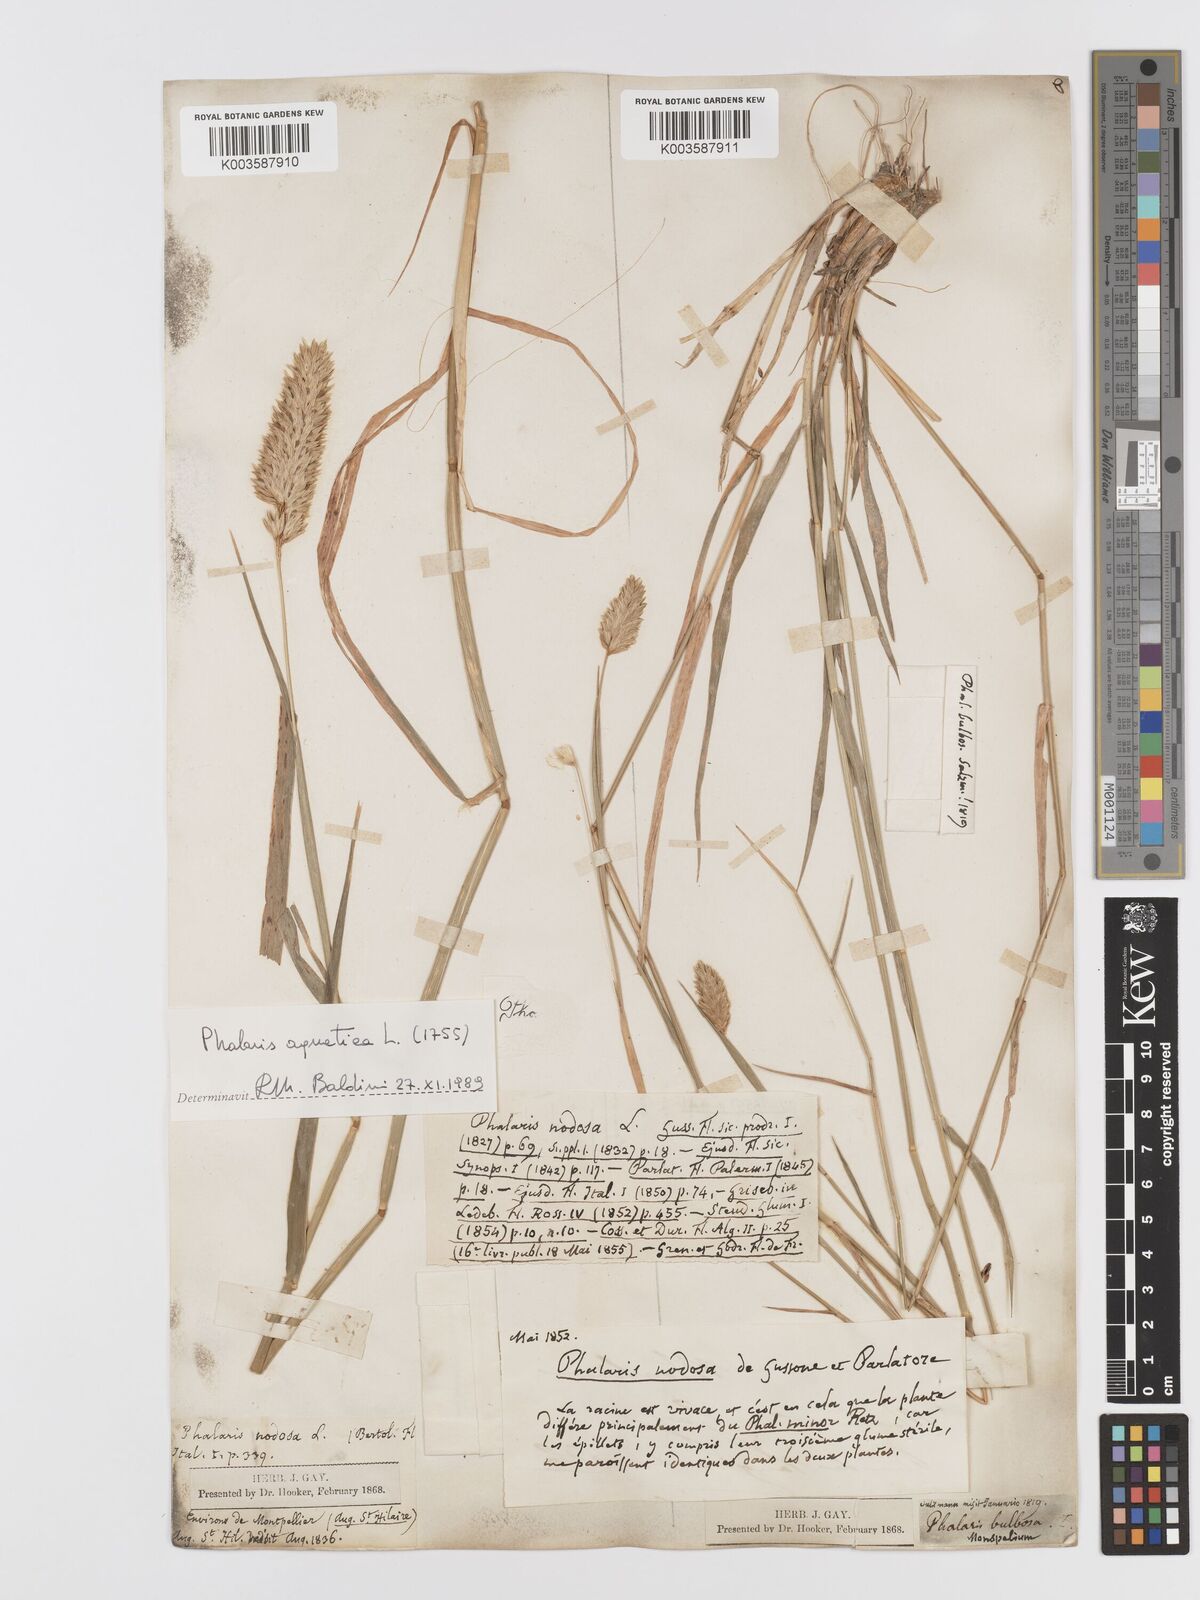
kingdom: Plantae
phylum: Tracheophyta
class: Liliopsida
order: Poales
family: Poaceae
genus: Phalaris
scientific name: Phalaris
